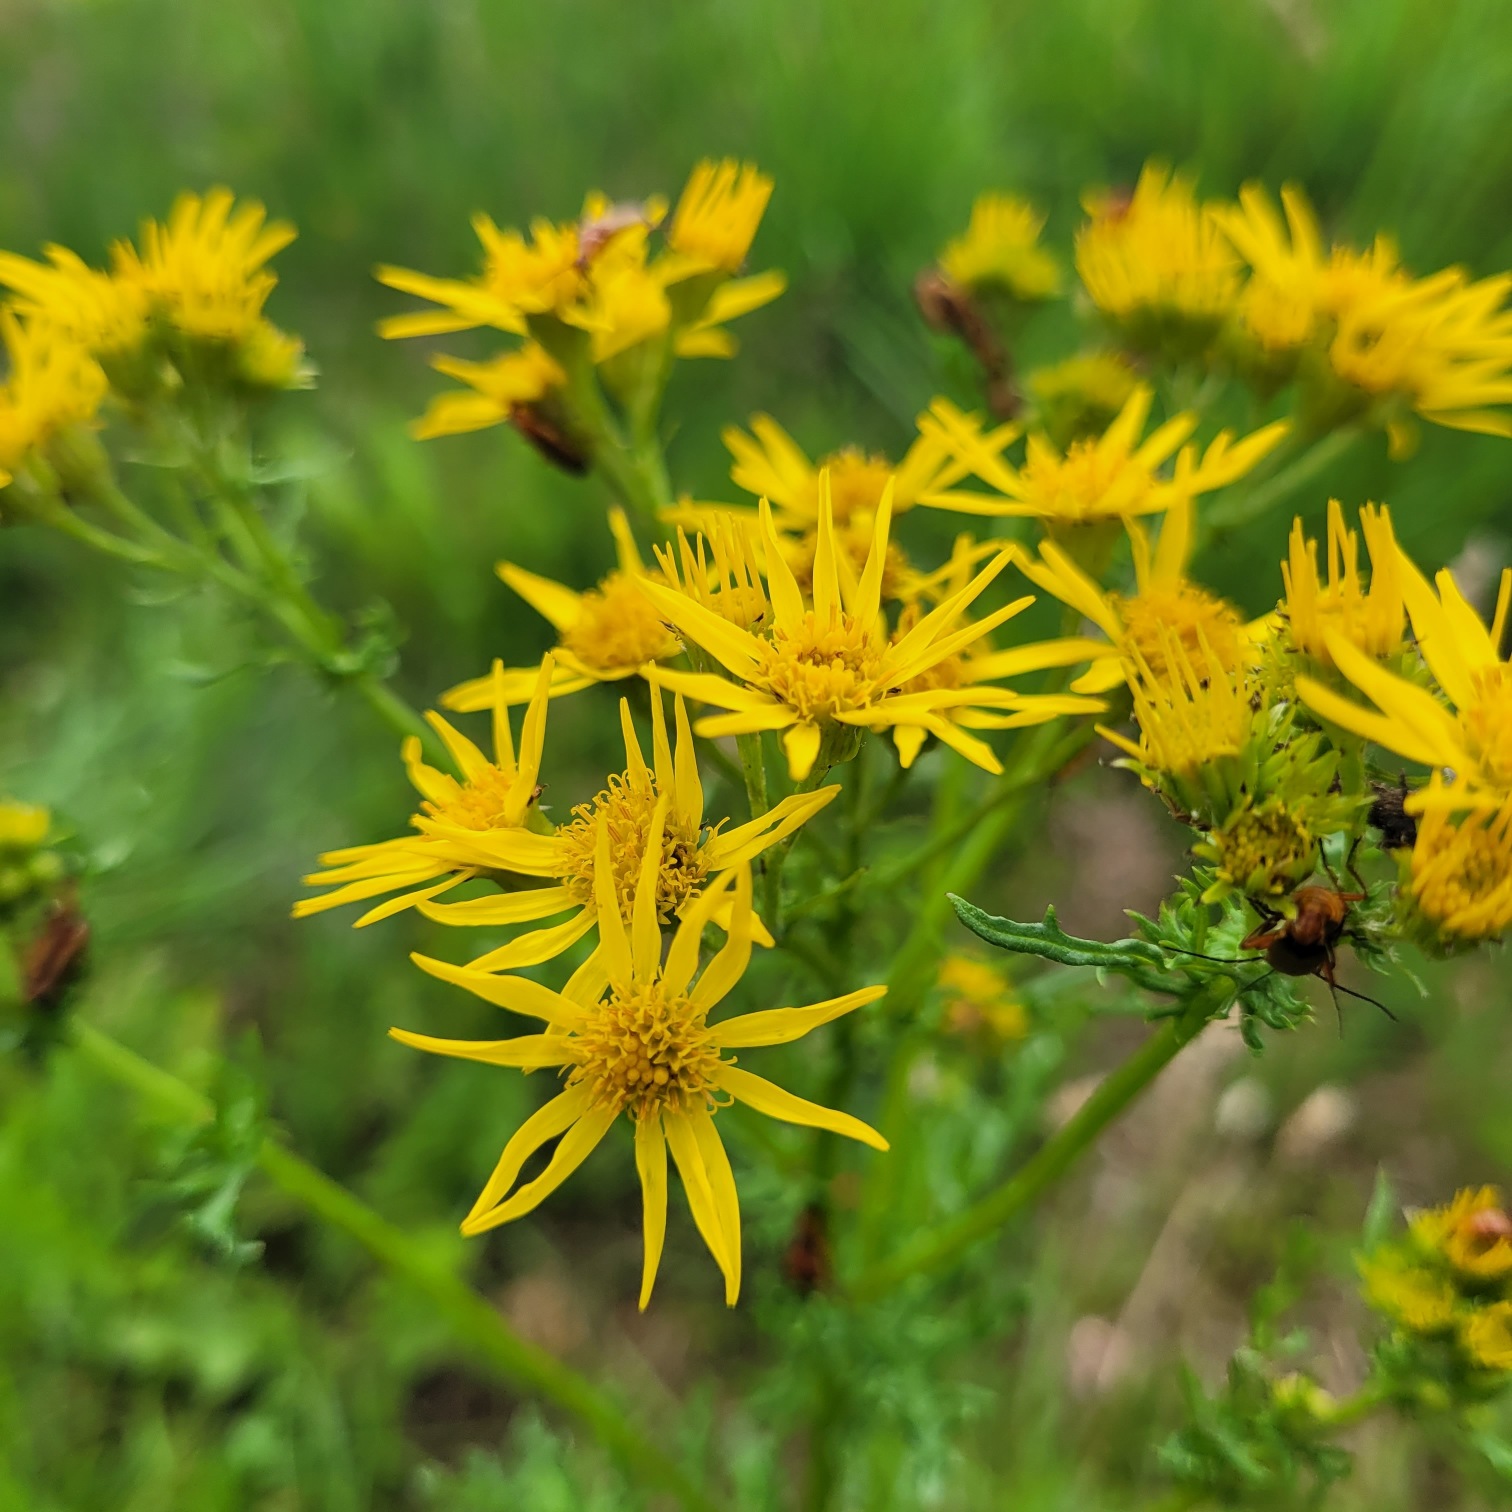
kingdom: Plantae
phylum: Tracheophyta
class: Magnoliopsida
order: Asterales
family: Asteraceae
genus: Jacobaea
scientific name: Jacobaea vulgaris
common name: Eng-brandbæger
